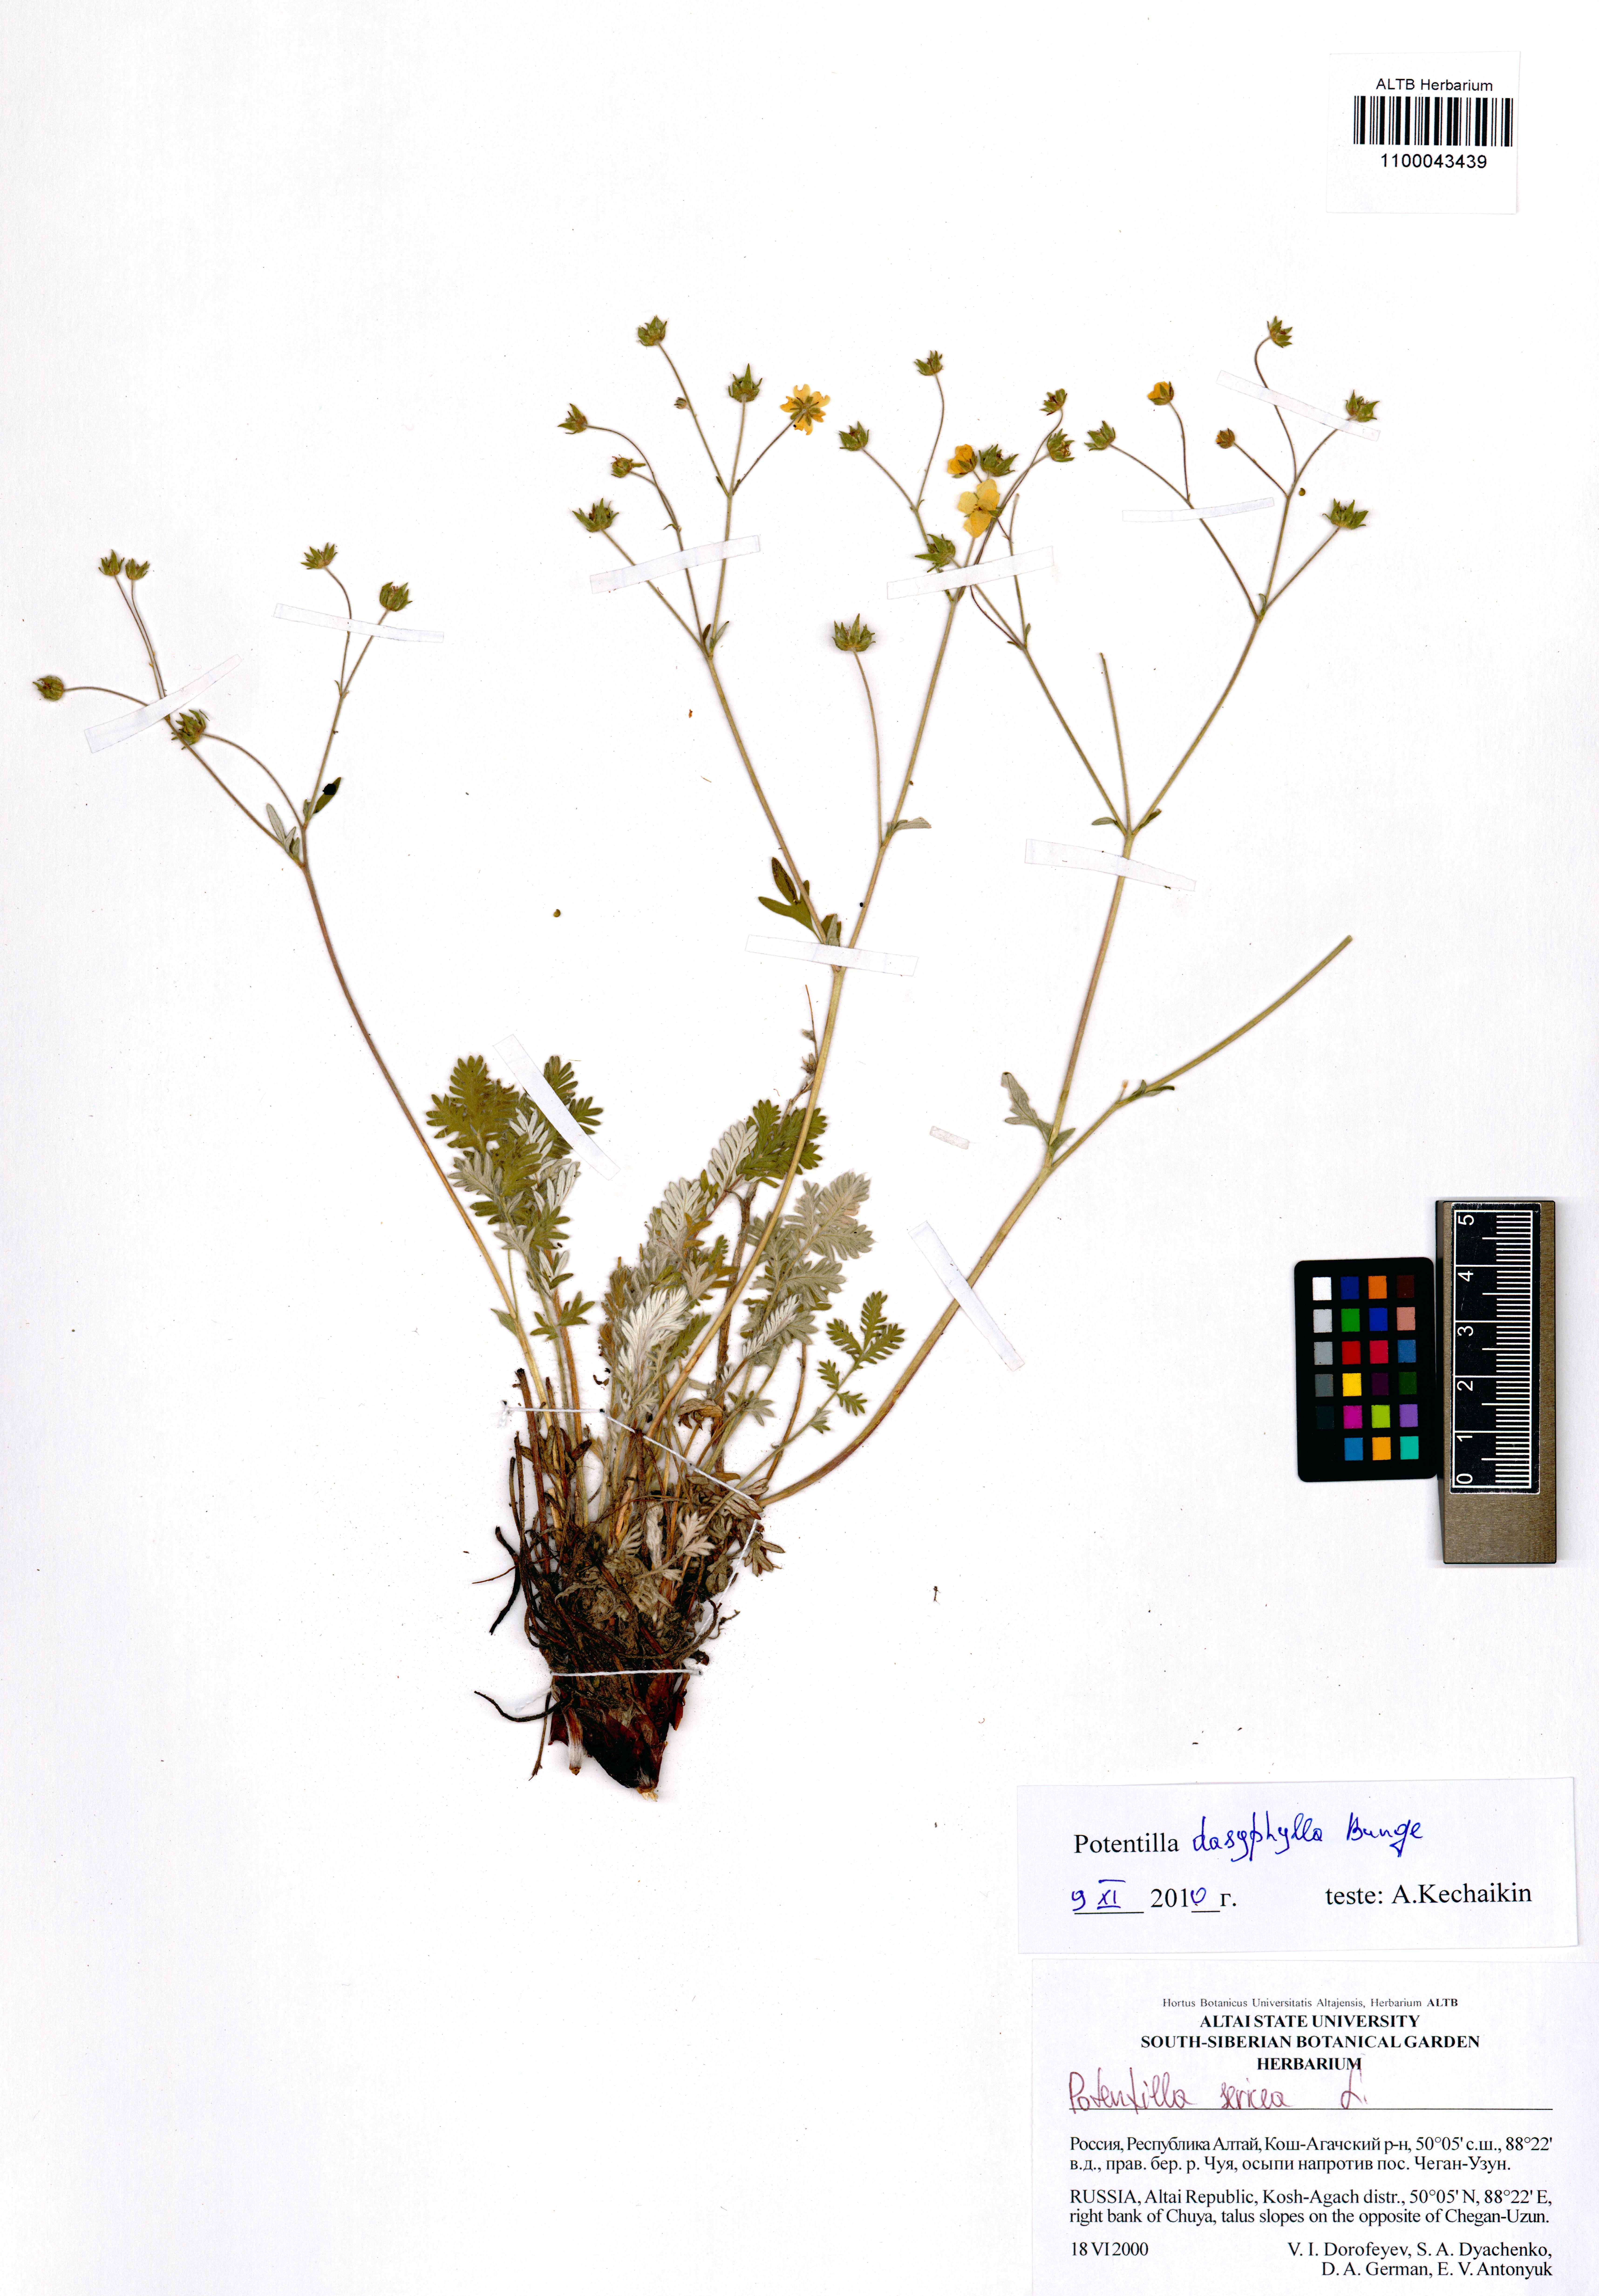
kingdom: Plantae
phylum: Tracheophyta
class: Magnoliopsida
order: Rosales
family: Rosaceae
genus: Potentilla
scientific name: Potentilla sericea
